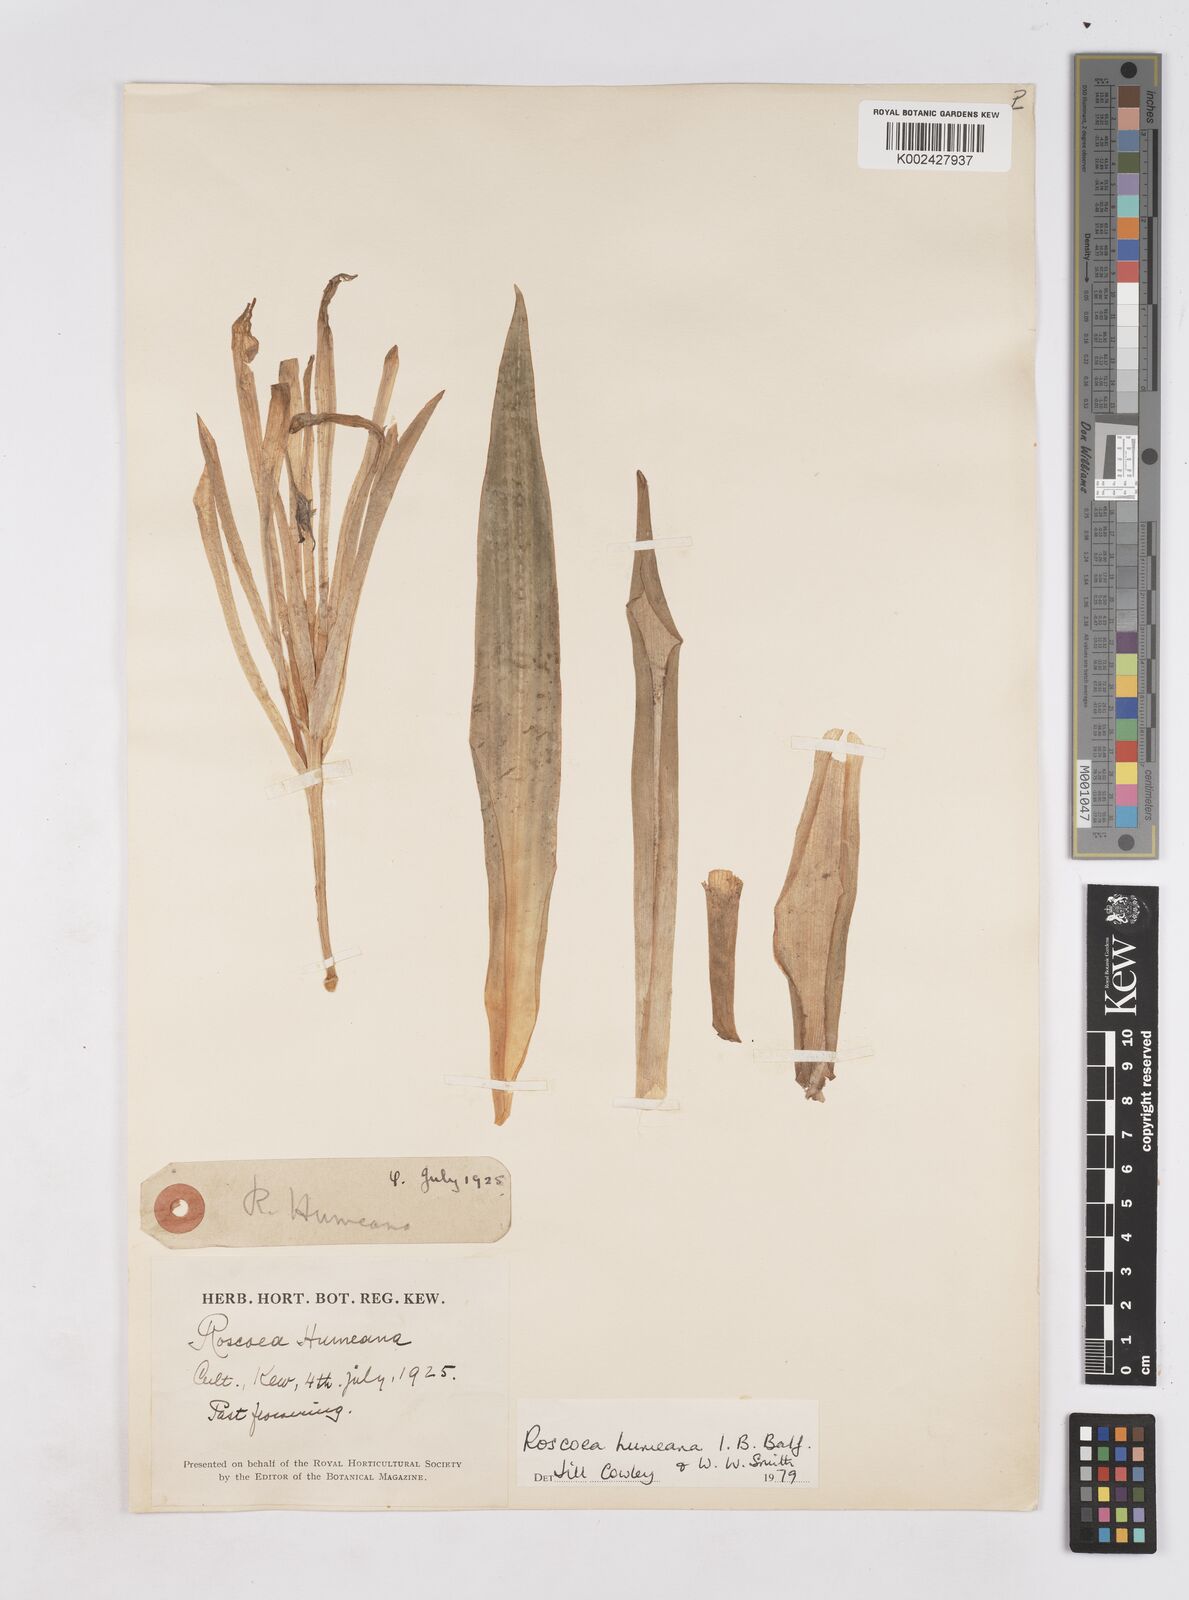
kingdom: Plantae
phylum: Tracheophyta
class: Liliopsida
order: Zingiberales
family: Zingiberaceae
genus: Roscoea
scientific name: Roscoea humeana
